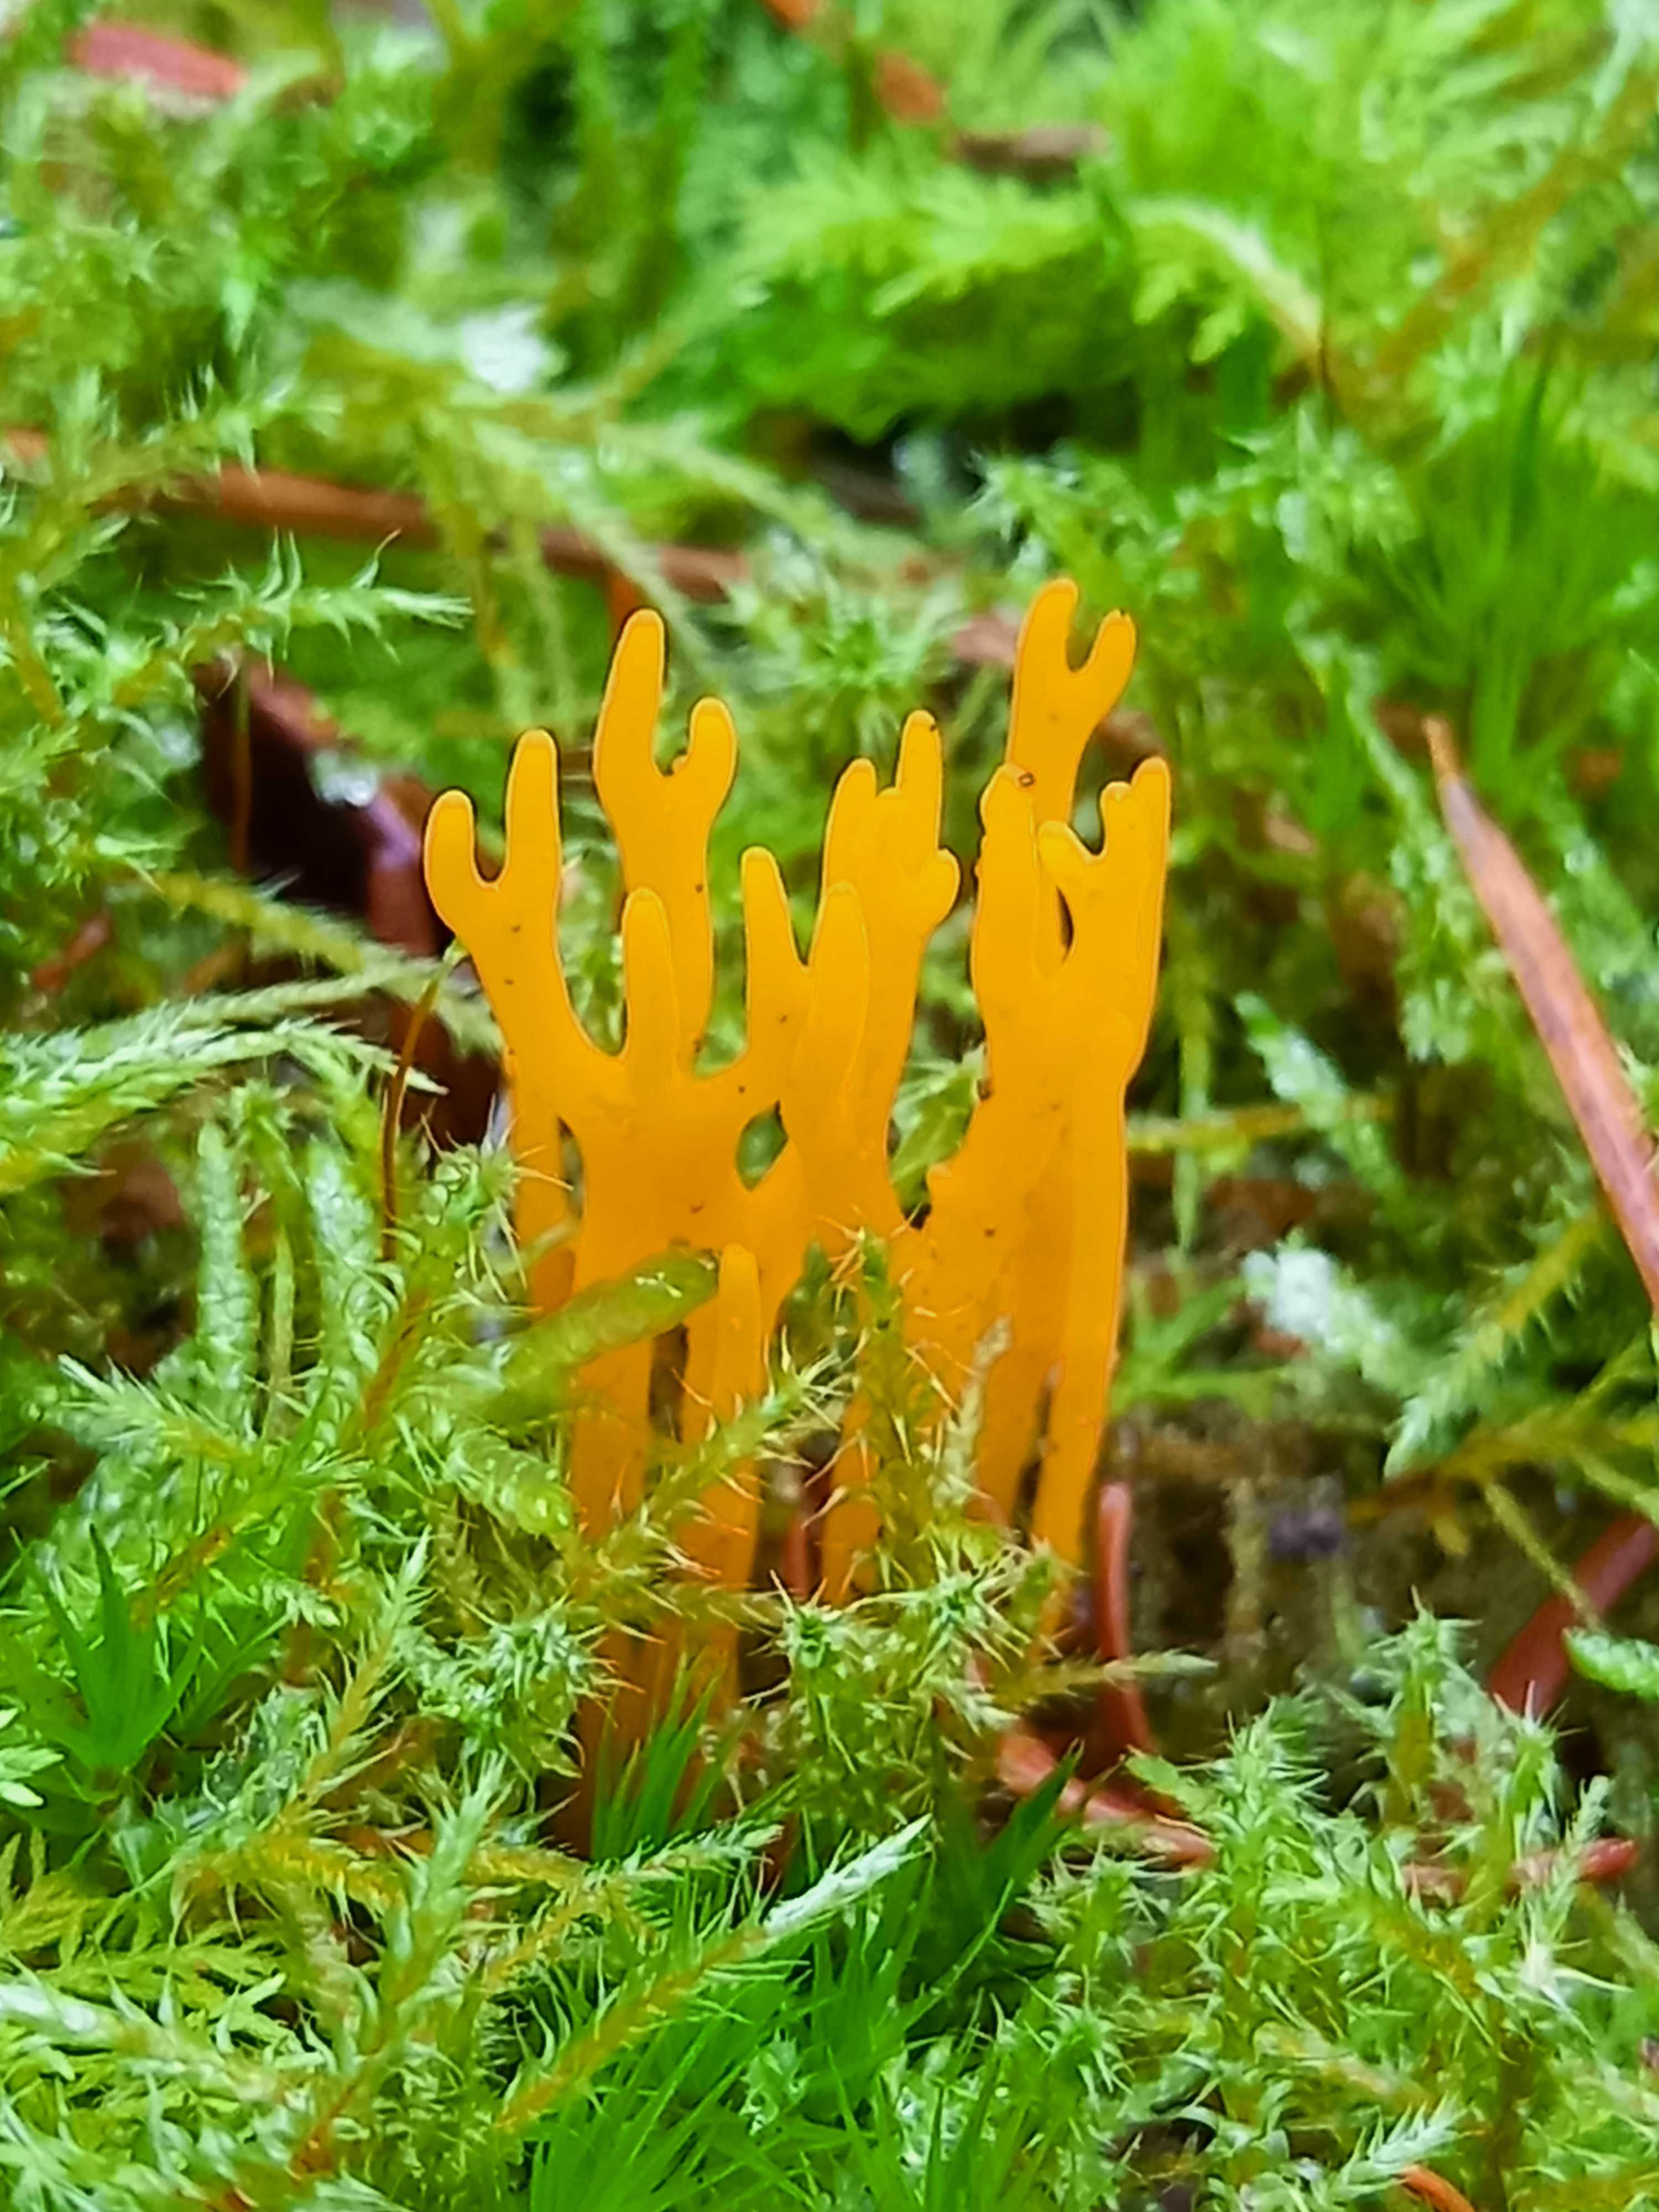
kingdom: Fungi
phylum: Basidiomycota
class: Dacrymycetes
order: Dacrymycetales
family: Dacrymycetaceae
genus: Calocera
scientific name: Calocera viscosa
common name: almindelig guldgaffel
